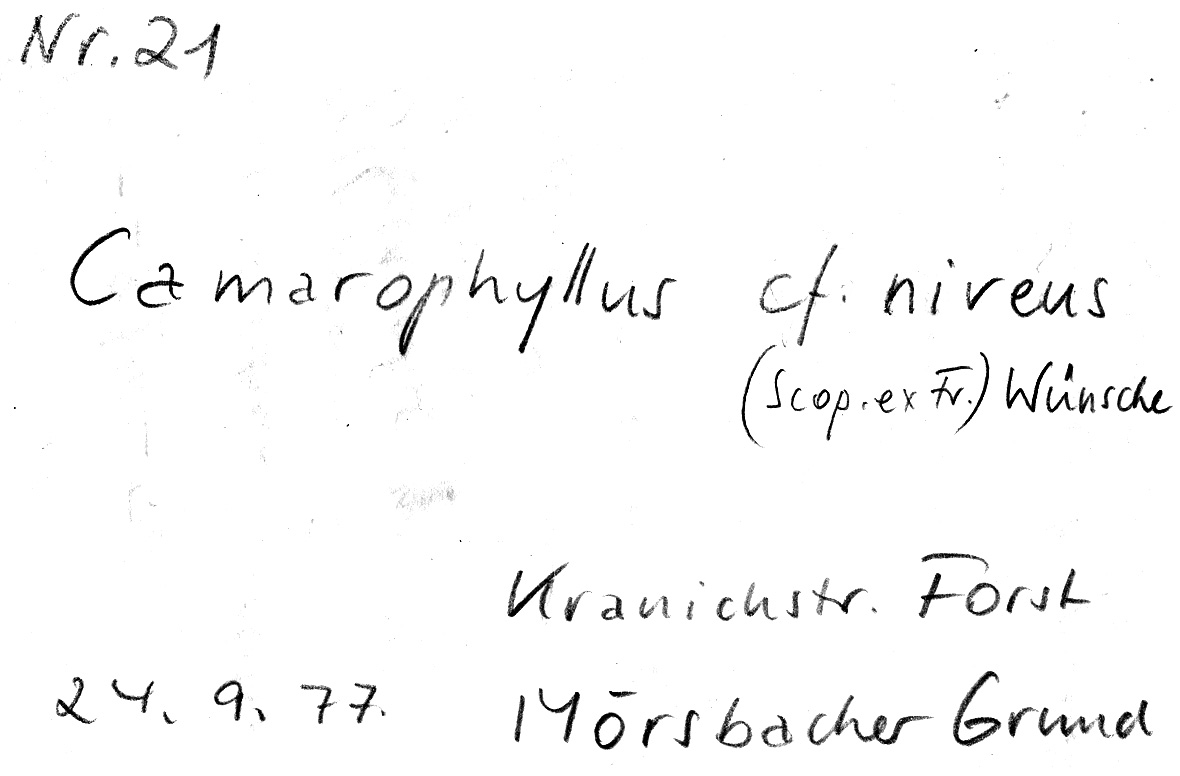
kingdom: Fungi
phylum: Basidiomycota
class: Agaricomycetes
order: Agaricales
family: Hygrophoraceae
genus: Cuphophyllus
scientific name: Cuphophyllus virgineus
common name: Snowy waxcap
